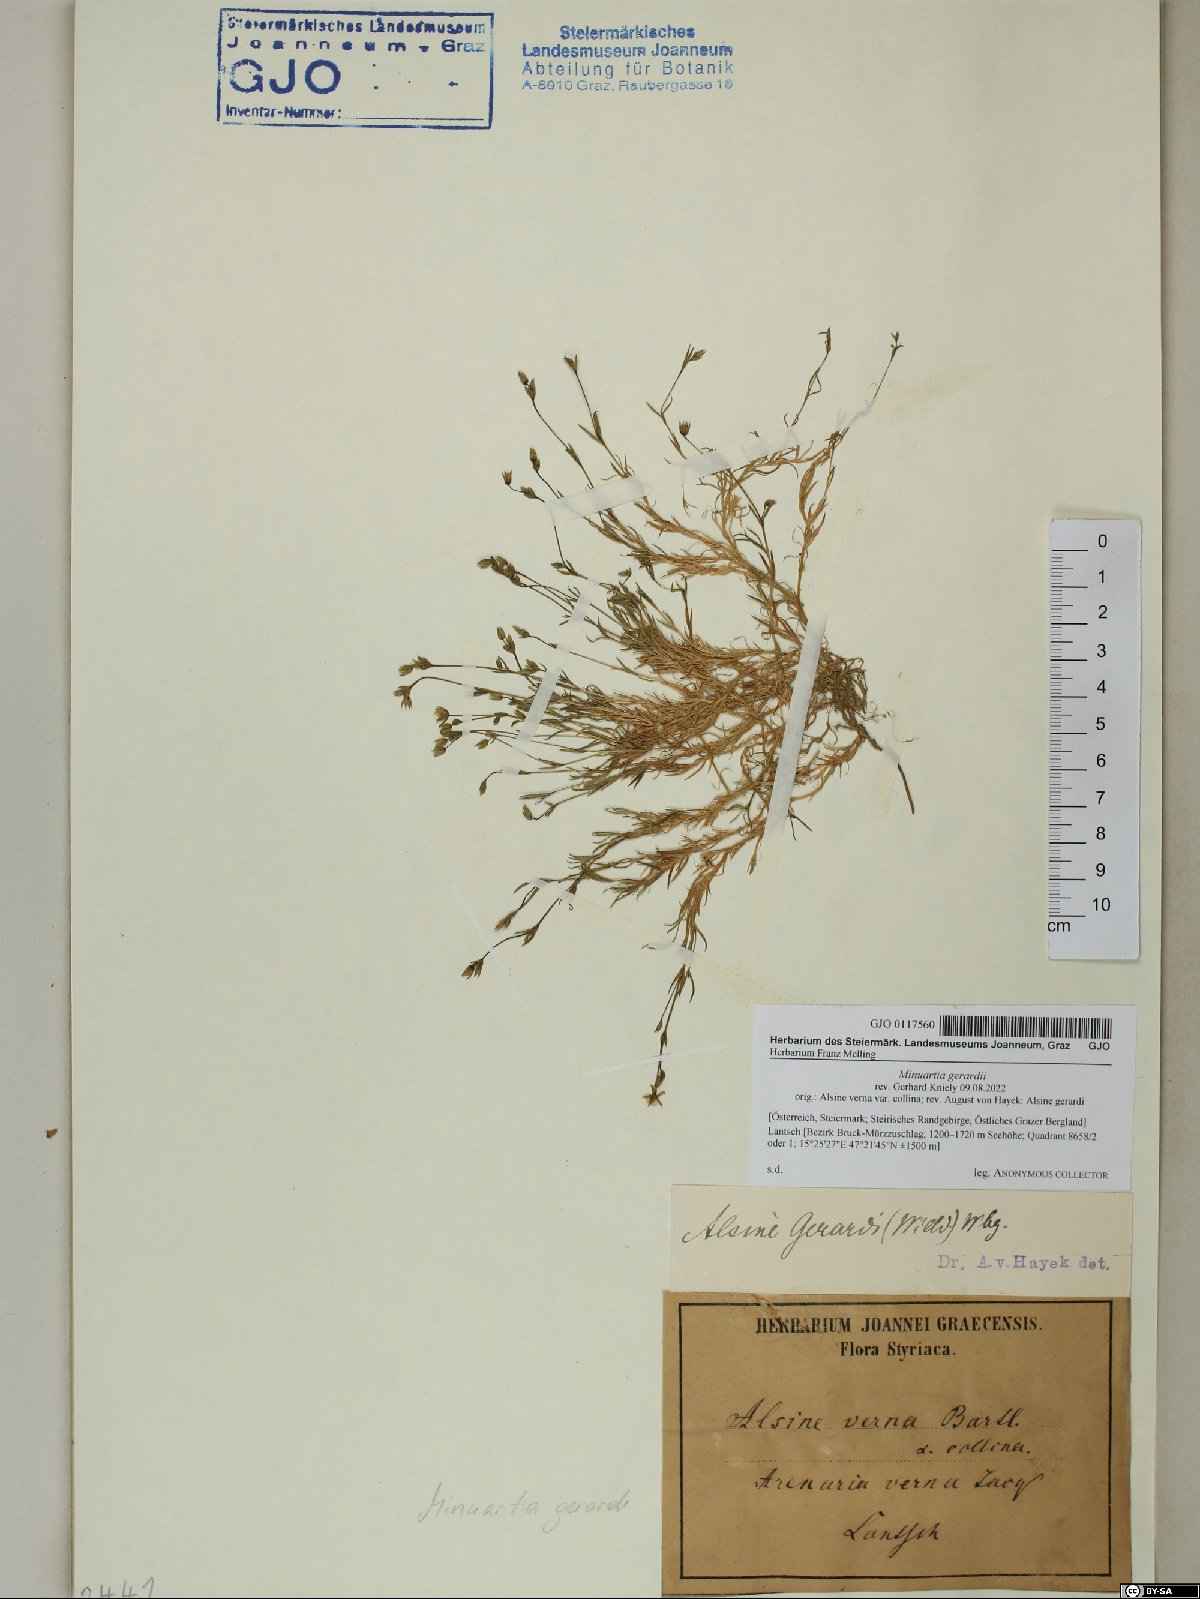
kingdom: Plantae
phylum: Tracheophyta
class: Magnoliopsida
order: Caryophyllales
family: Caryophyllaceae
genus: Sabulina
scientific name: Sabulina verna
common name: Spring sandwort
